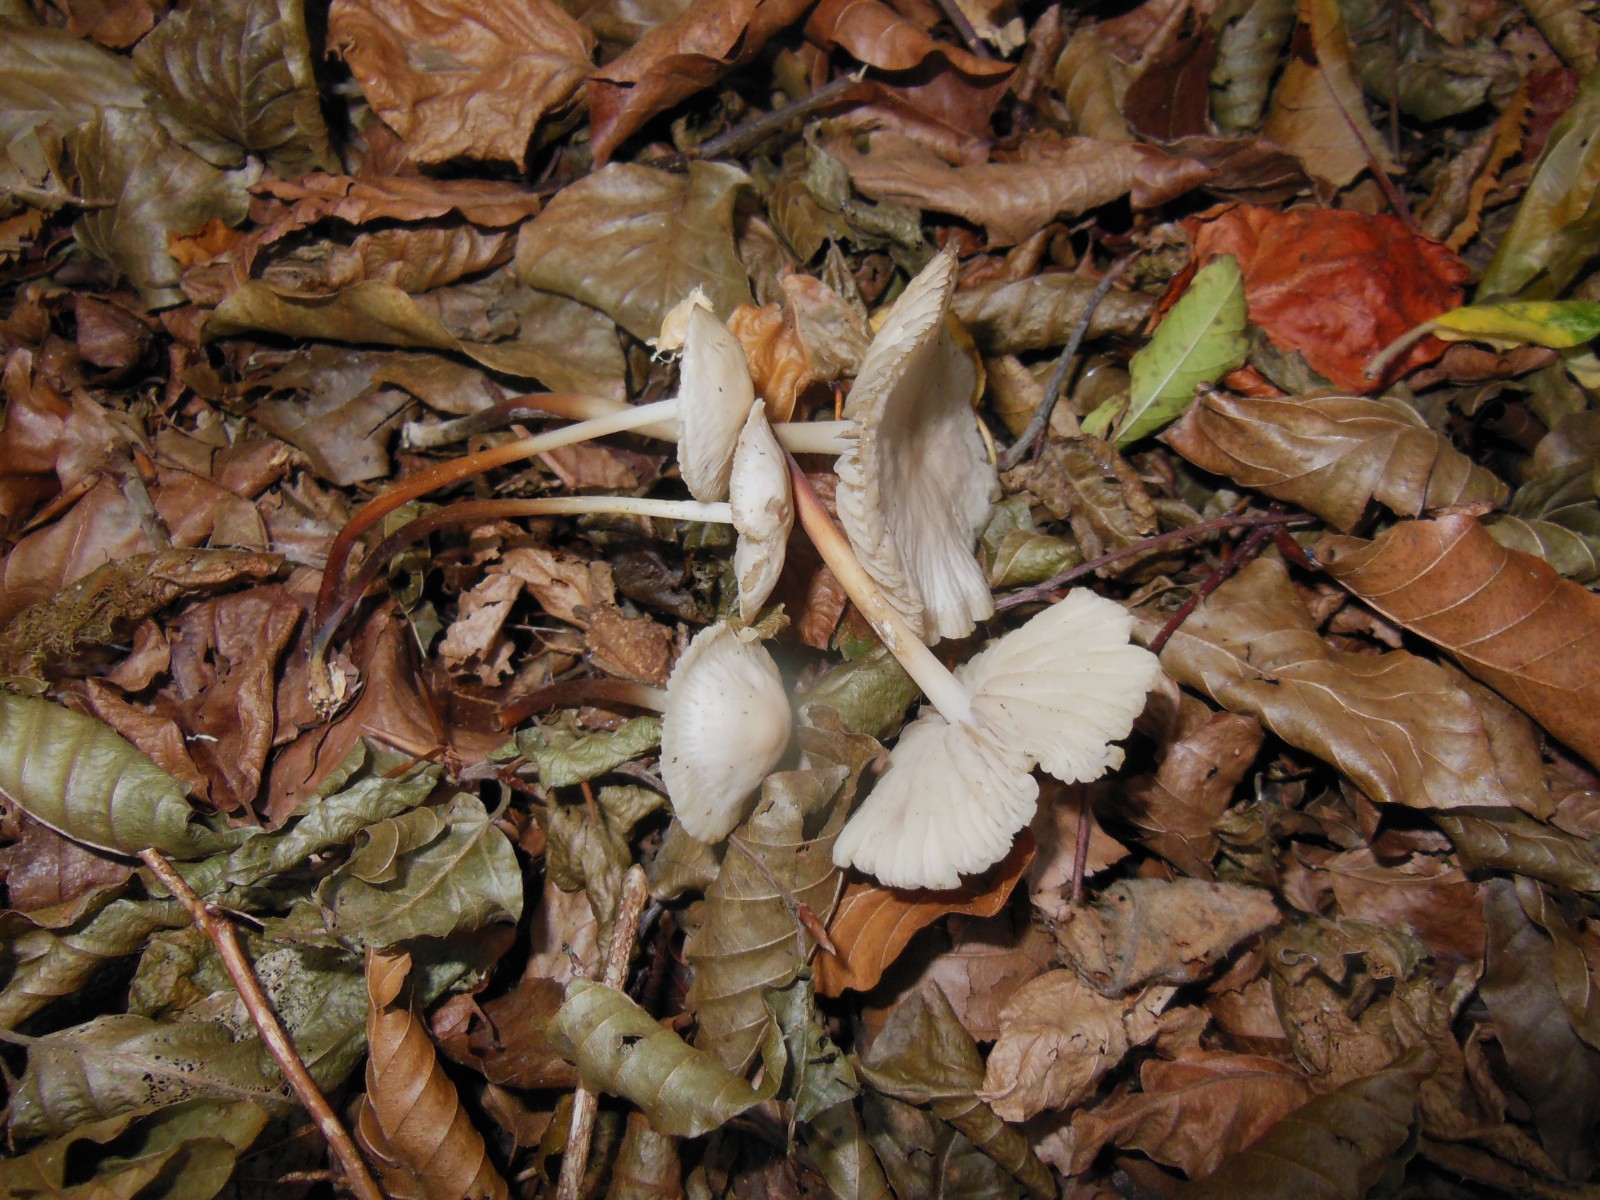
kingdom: Fungi
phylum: Basidiomycota
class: Agaricomycetes
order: Agaricales
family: Marasmiaceae
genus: Marasmius
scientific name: Marasmius torquescens
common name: filtfodet bruskhat
